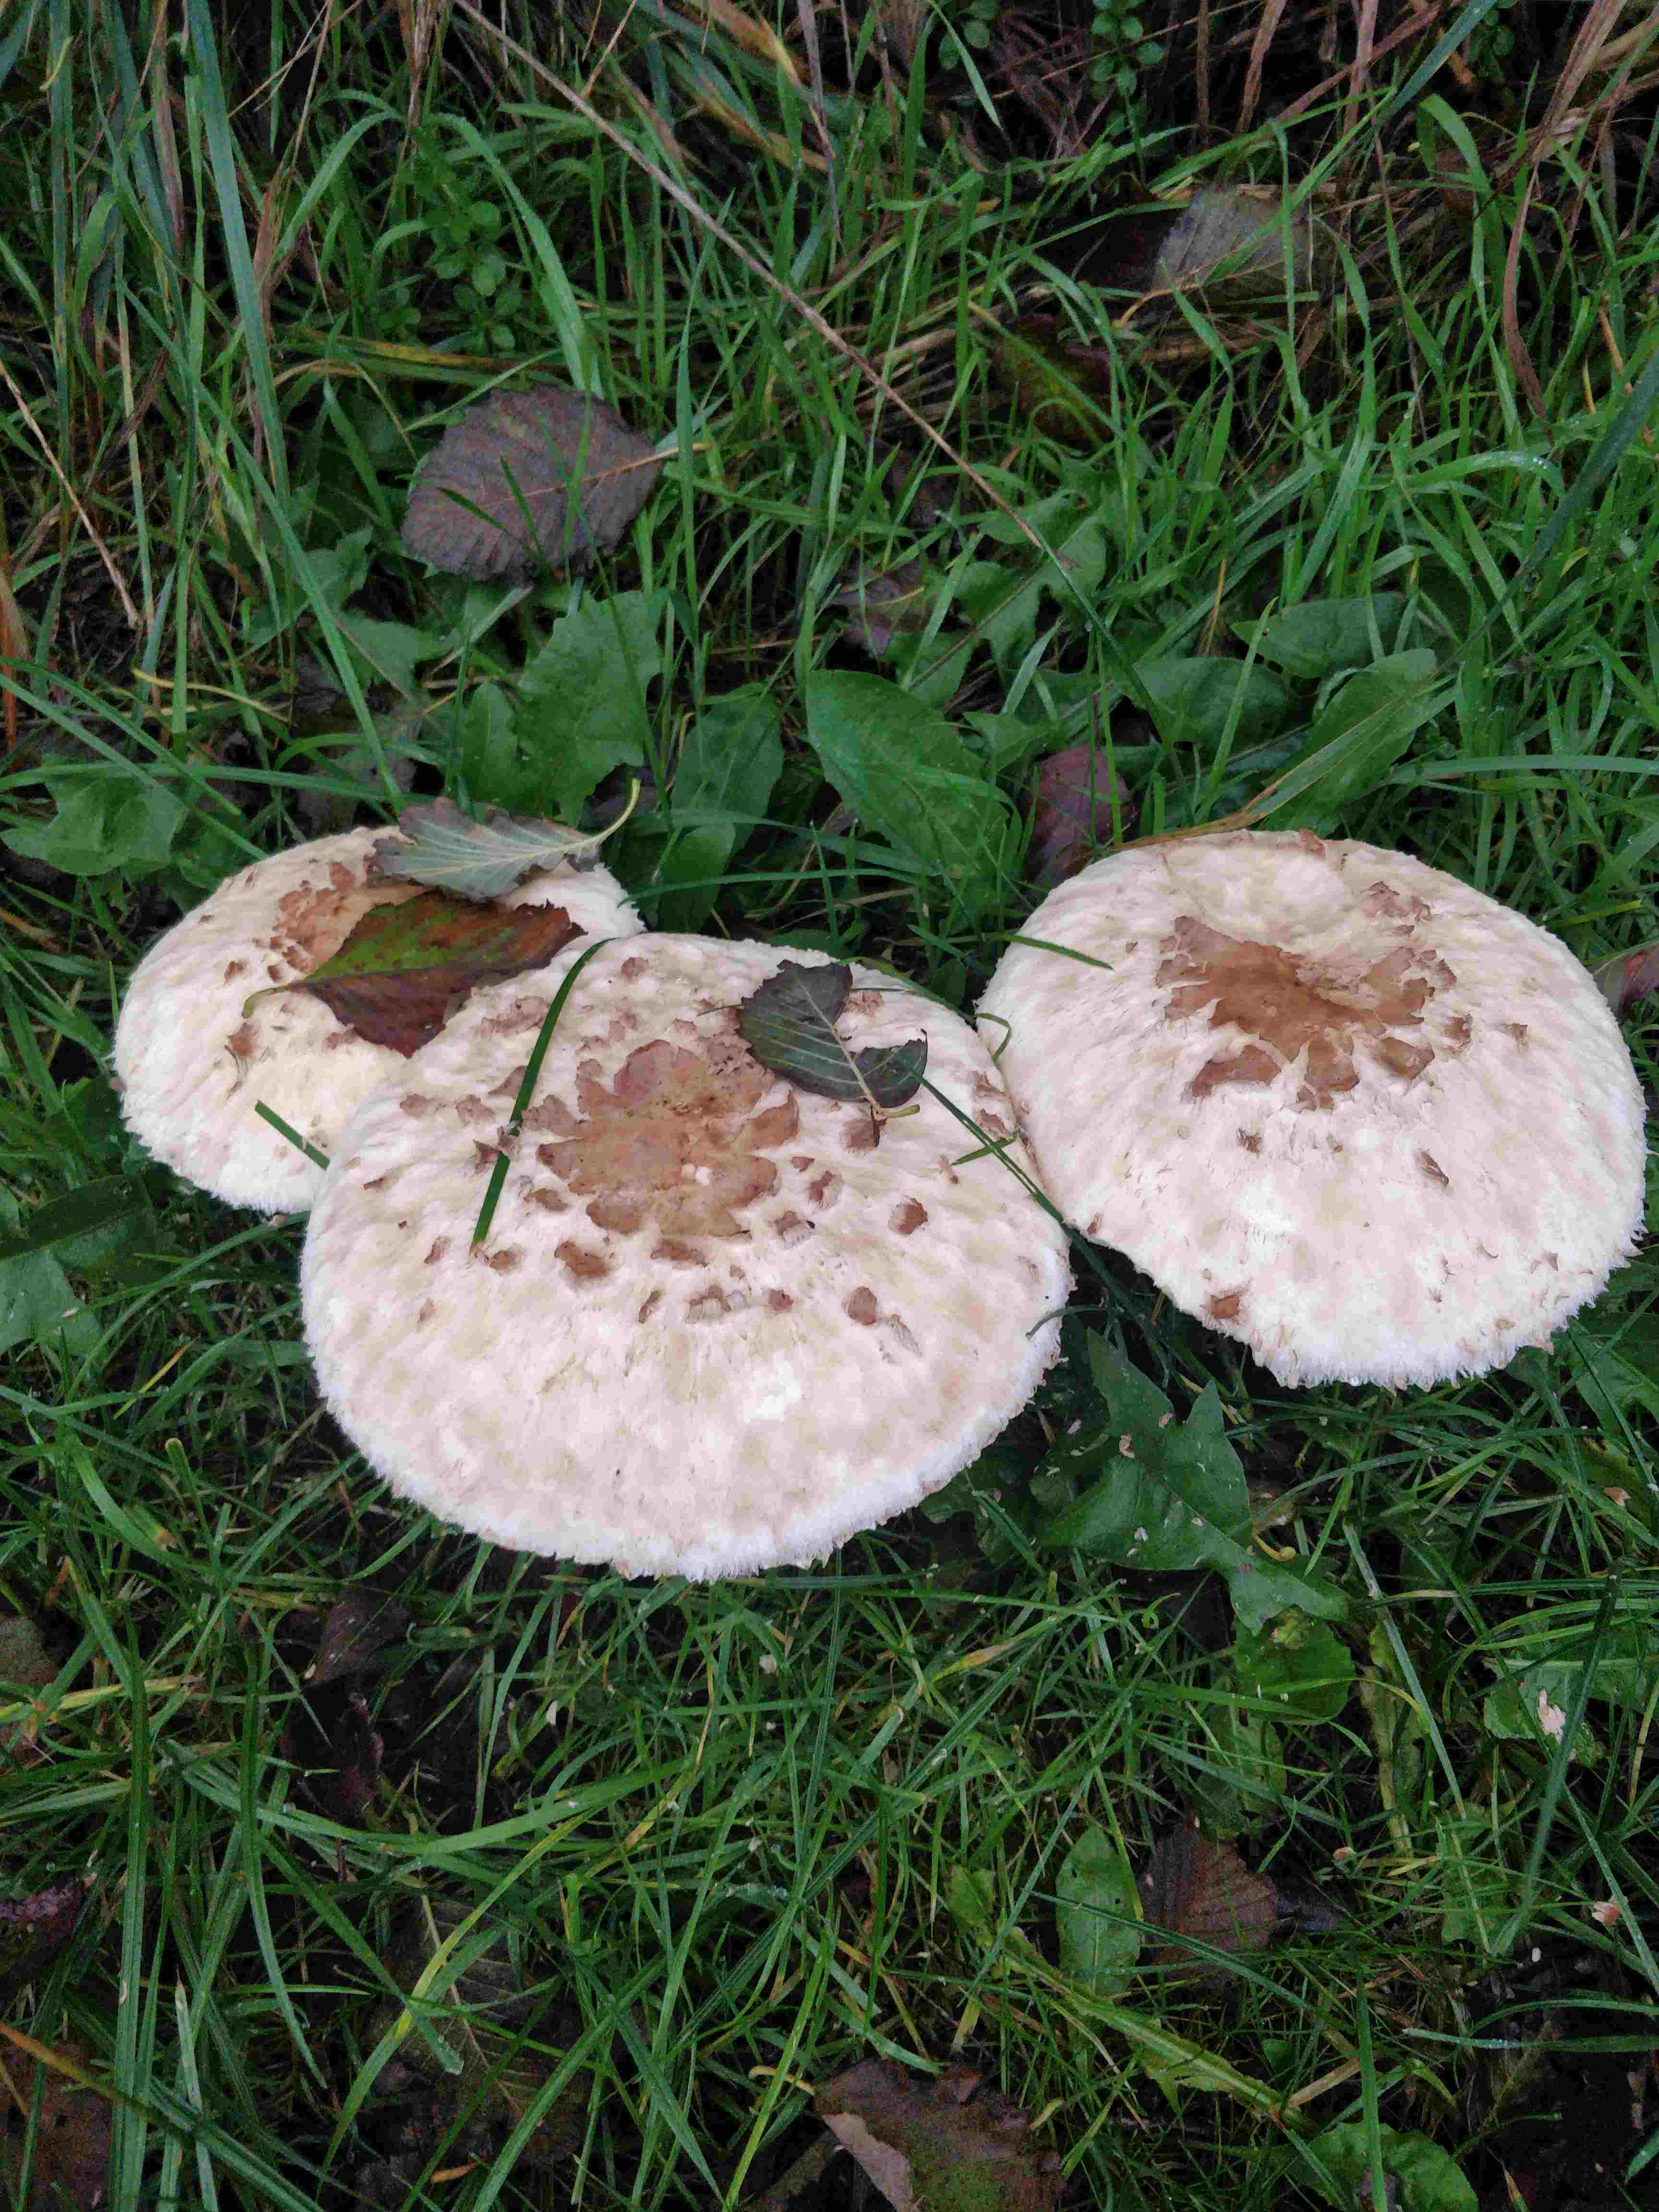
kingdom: Fungi
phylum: Basidiomycota
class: Agaricomycetes
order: Agaricales
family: Agaricaceae
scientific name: Agaricaceae
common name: champignonfamilien
